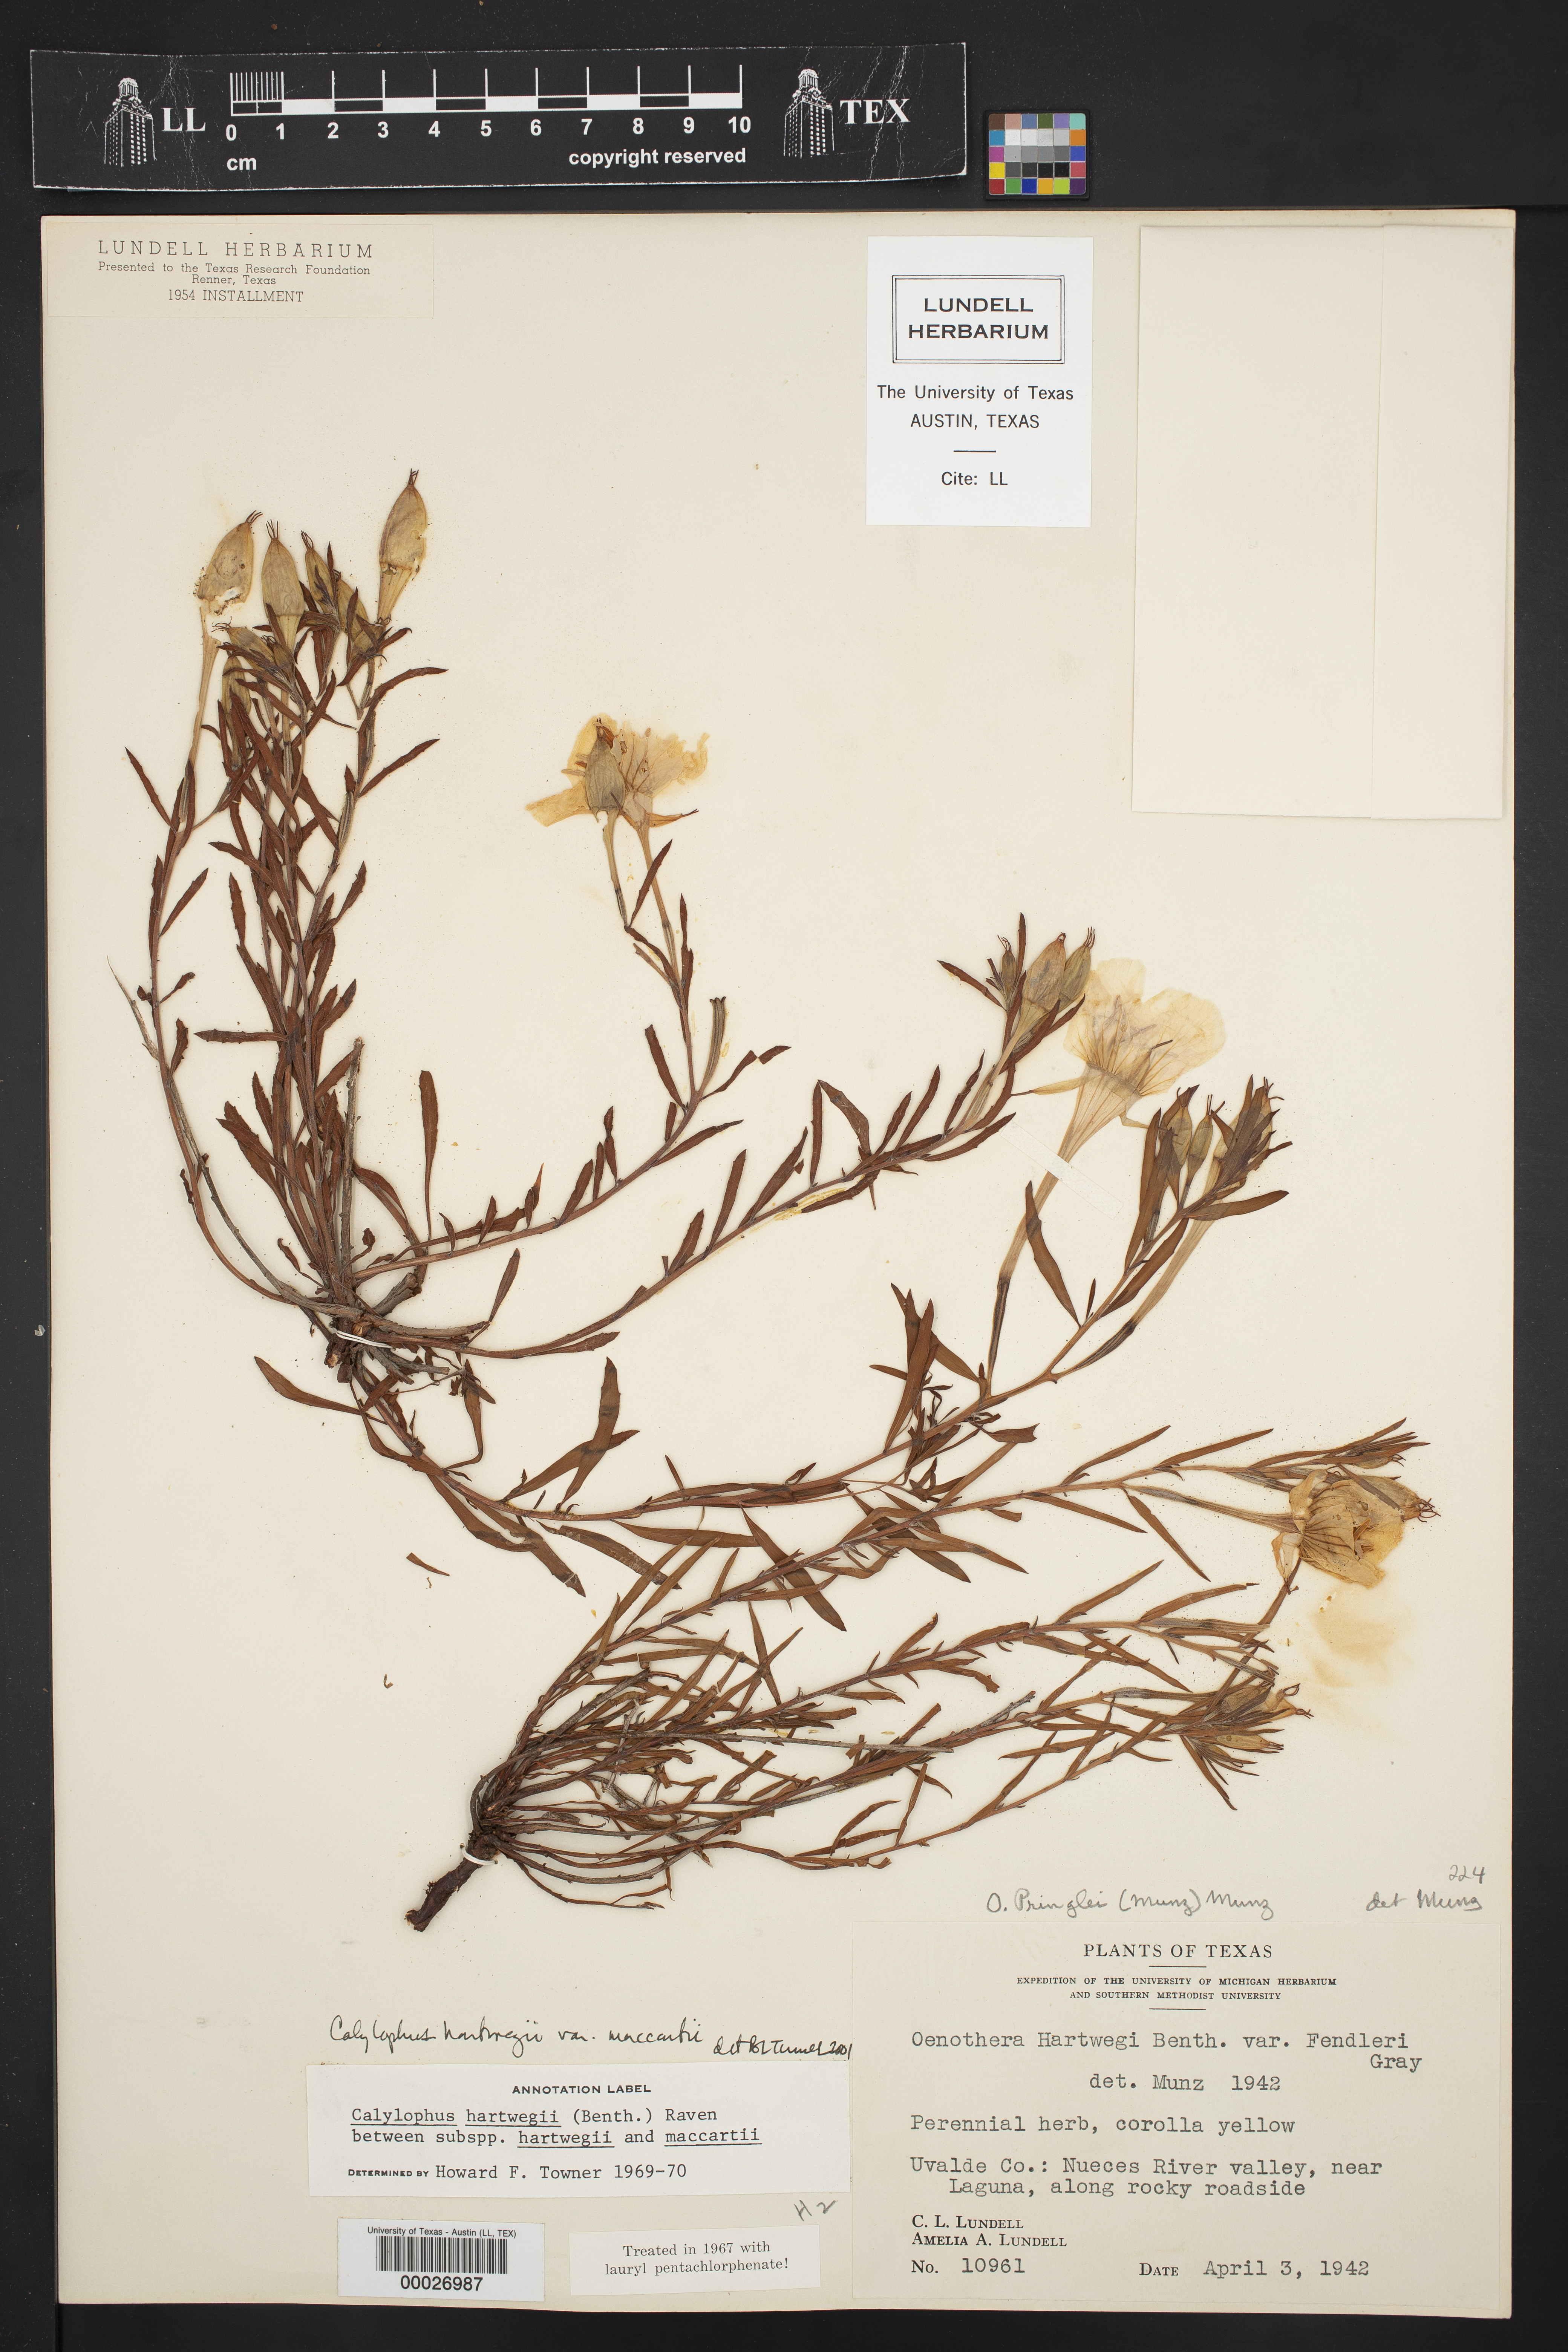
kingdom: Plantae
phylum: Tracheophyta
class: Magnoliopsida
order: Myrtales
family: Onagraceae
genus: Oenothera
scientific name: Oenothera hartwegii
